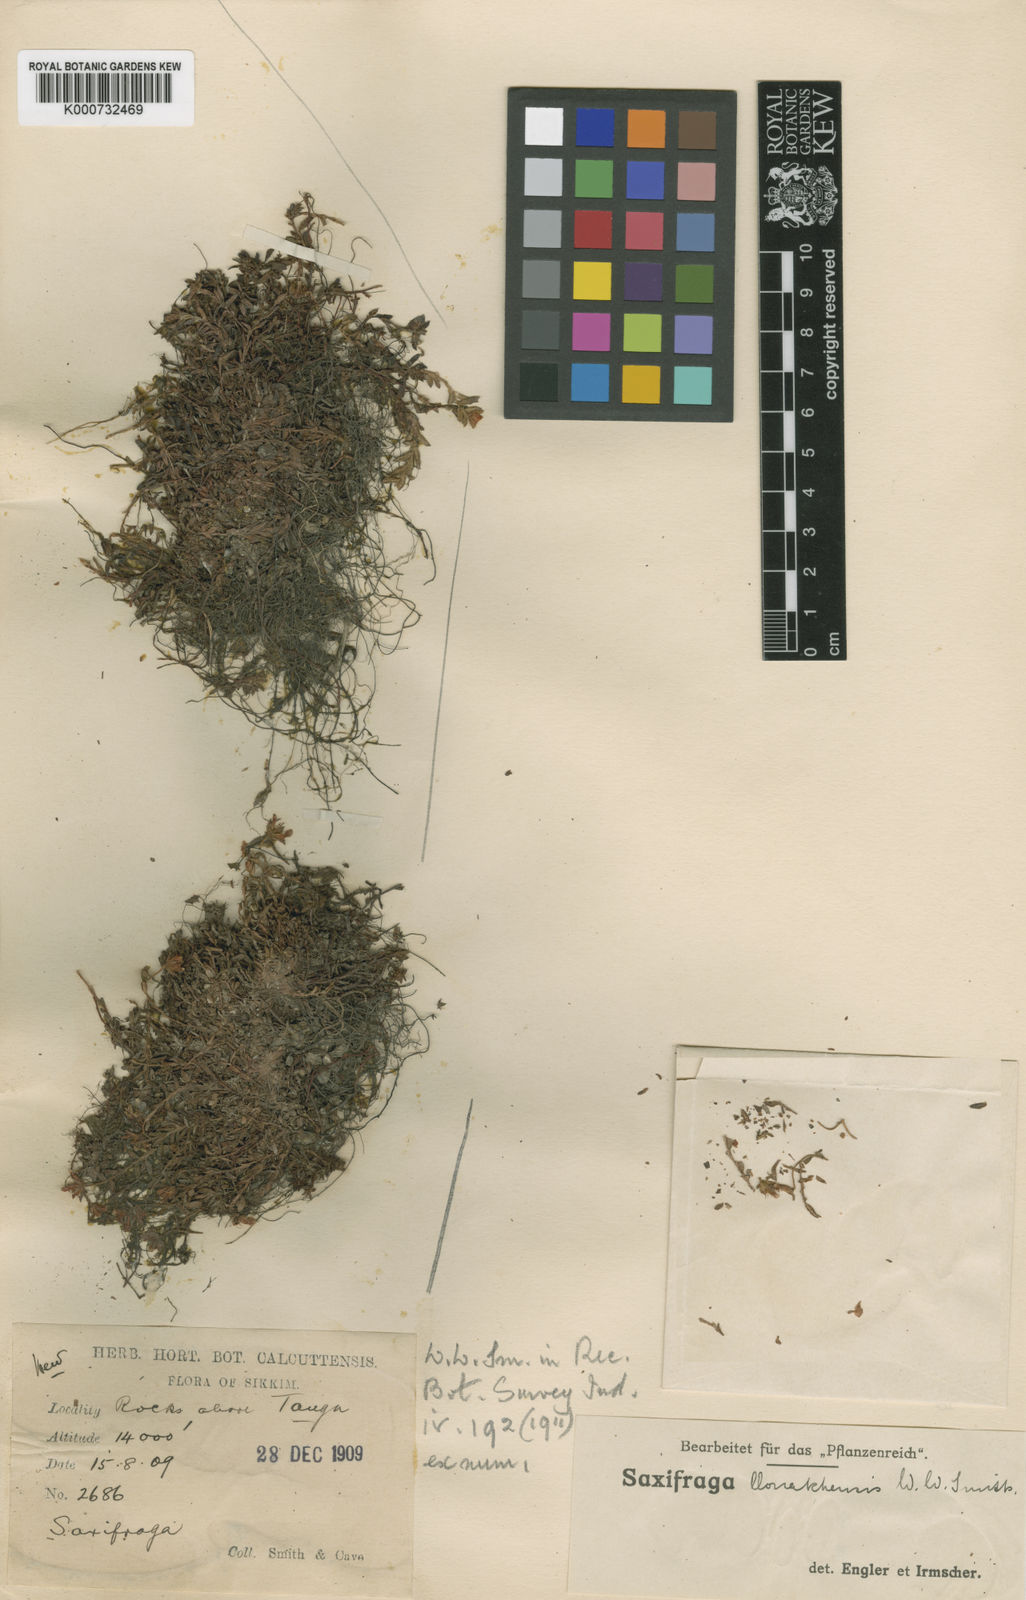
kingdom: Plantae
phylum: Tracheophyta
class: Magnoliopsida
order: Saxifragales
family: Saxifragaceae
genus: Saxifraga
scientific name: Saxifraga llonakhensis
